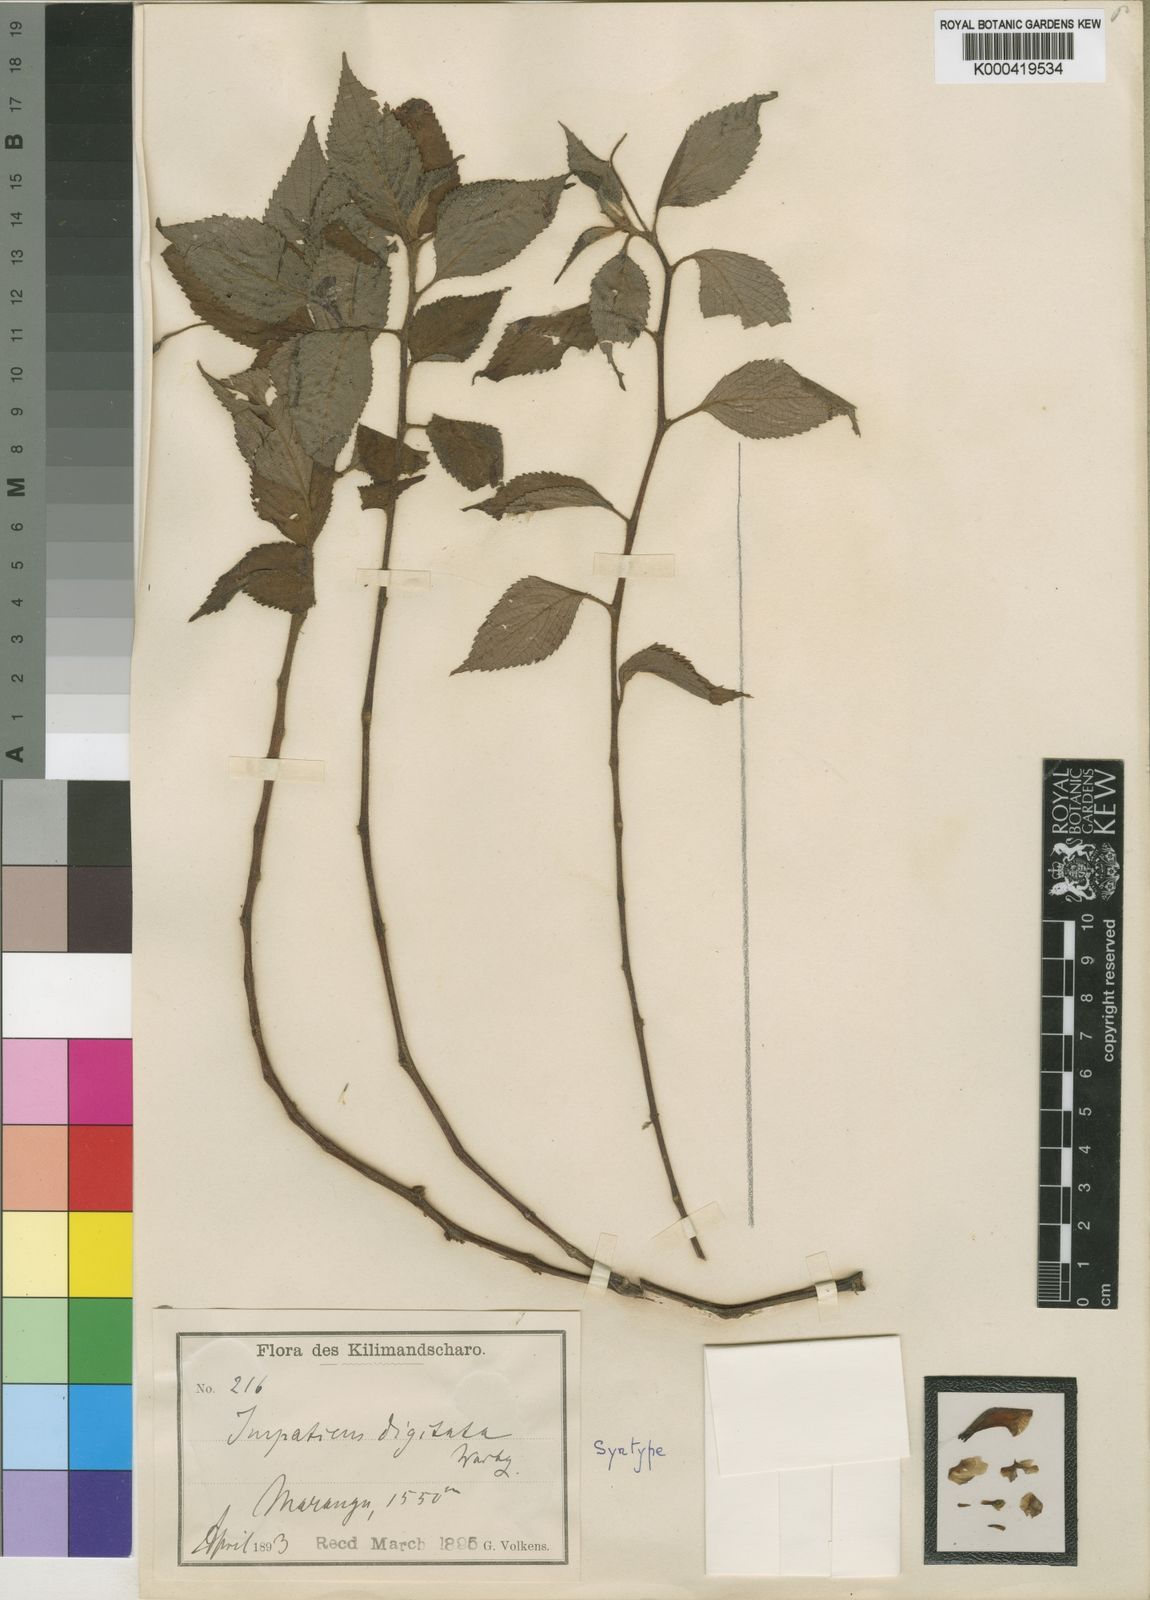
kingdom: Plantae
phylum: Tracheophyta
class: Magnoliopsida
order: Ericales
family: Balsaminaceae
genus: Impatiens
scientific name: Impatiens digitata
